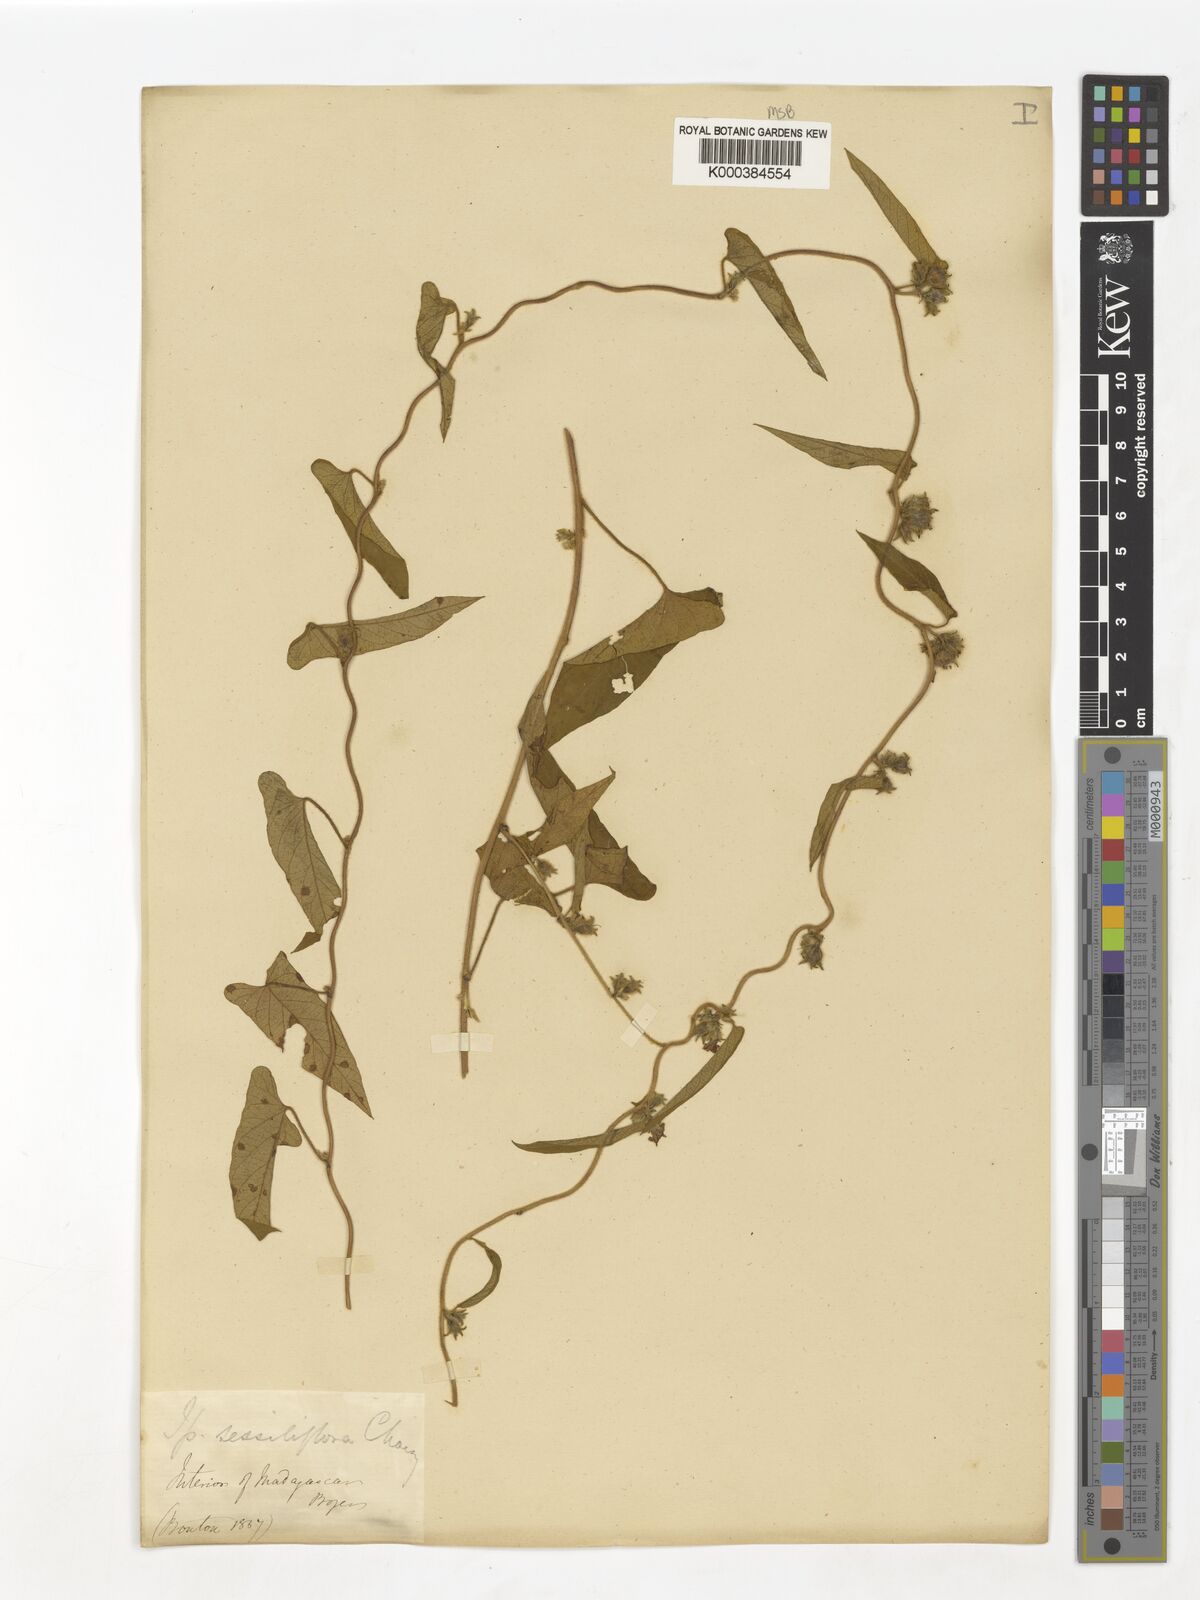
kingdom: Plantae
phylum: Tracheophyta
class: Magnoliopsida
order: Solanales
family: Convolvulaceae
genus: Ipomoea
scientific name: Ipomoea eriocarpa
